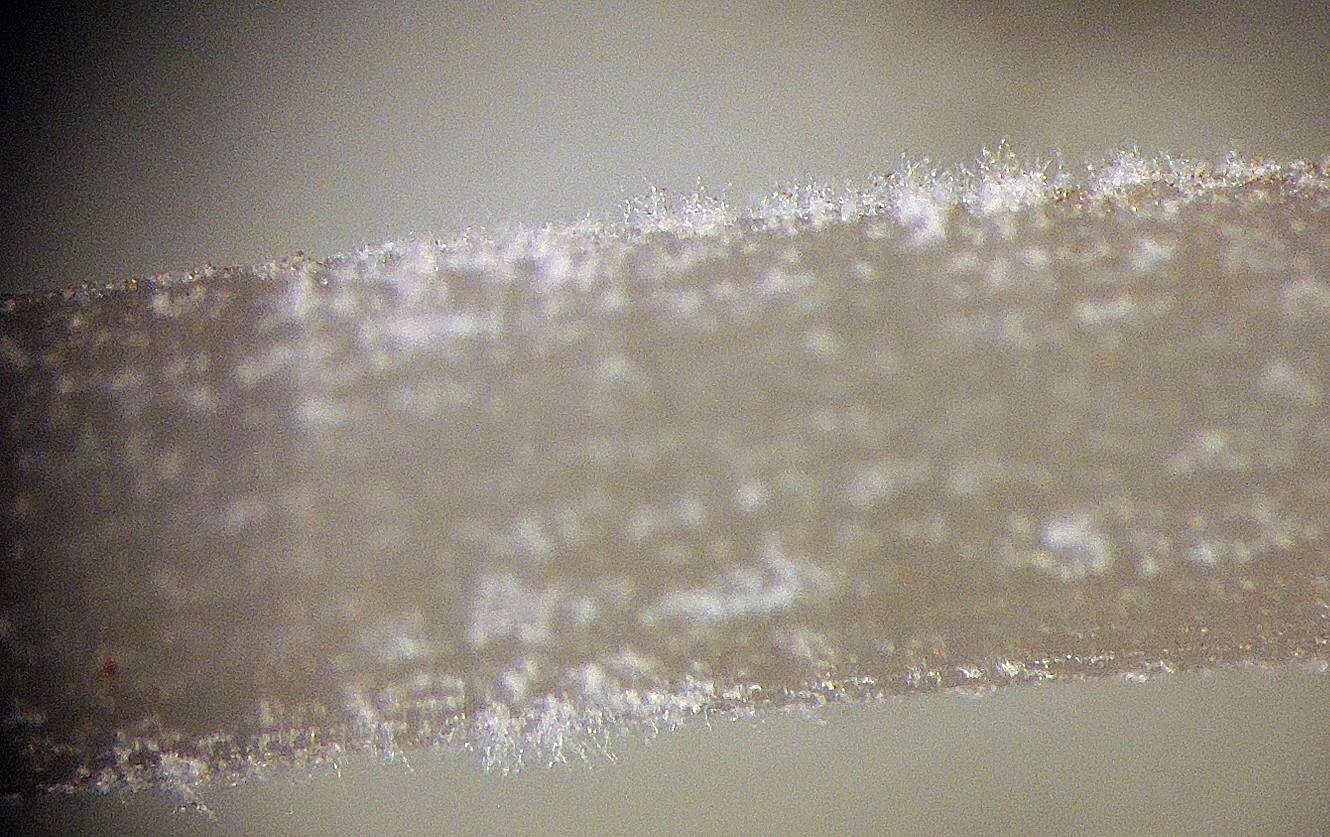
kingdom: Fungi
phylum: Basidiomycota
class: Agaricomycetes
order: Agaricales
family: Bolbitiaceae
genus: Conocybe
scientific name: Conocybe siliginea
